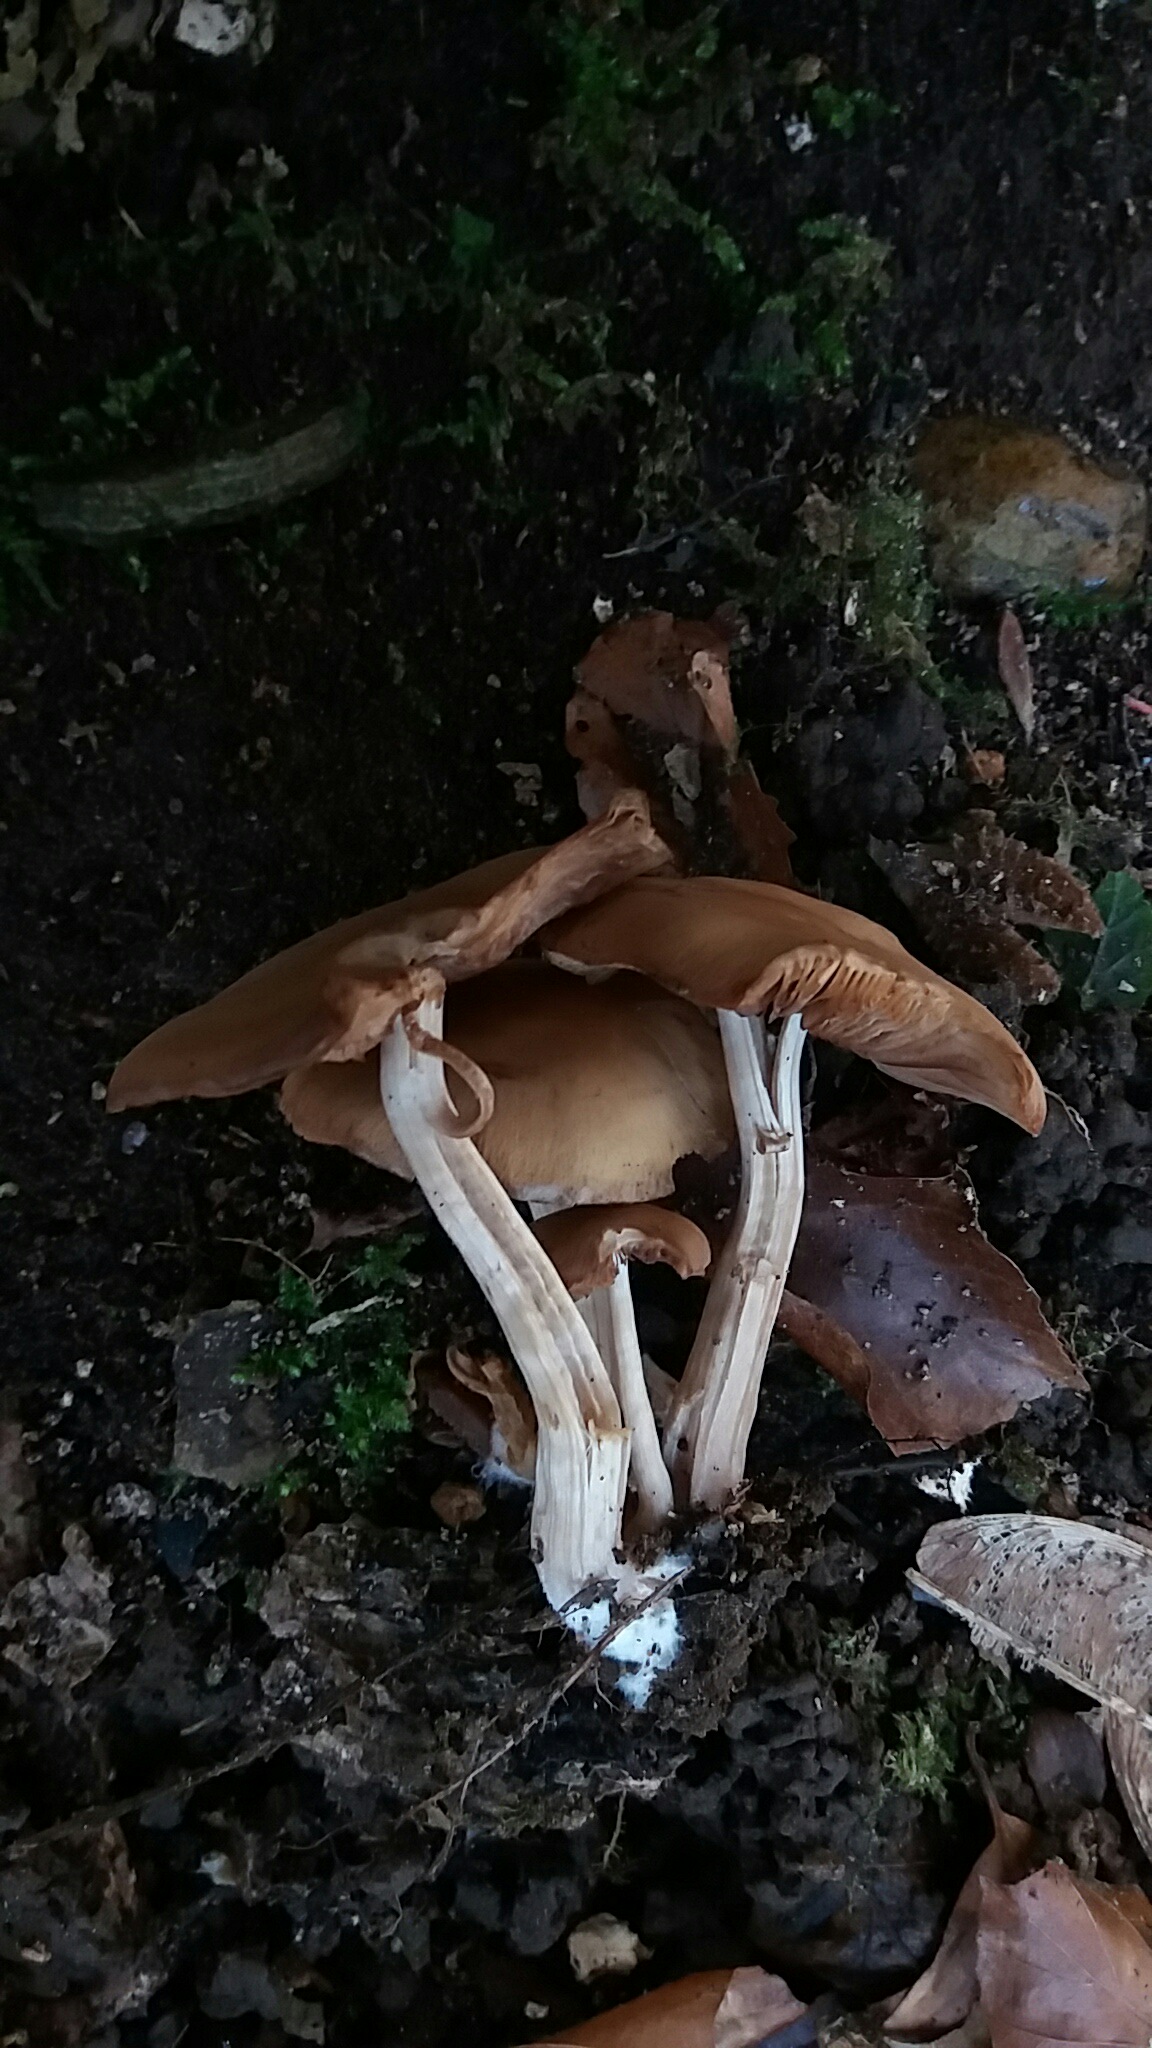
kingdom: Fungi
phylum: Basidiomycota
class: Agaricomycetes
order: Agaricales
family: Psathyrellaceae
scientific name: Psathyrellaceae
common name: mørkhatfamilien
